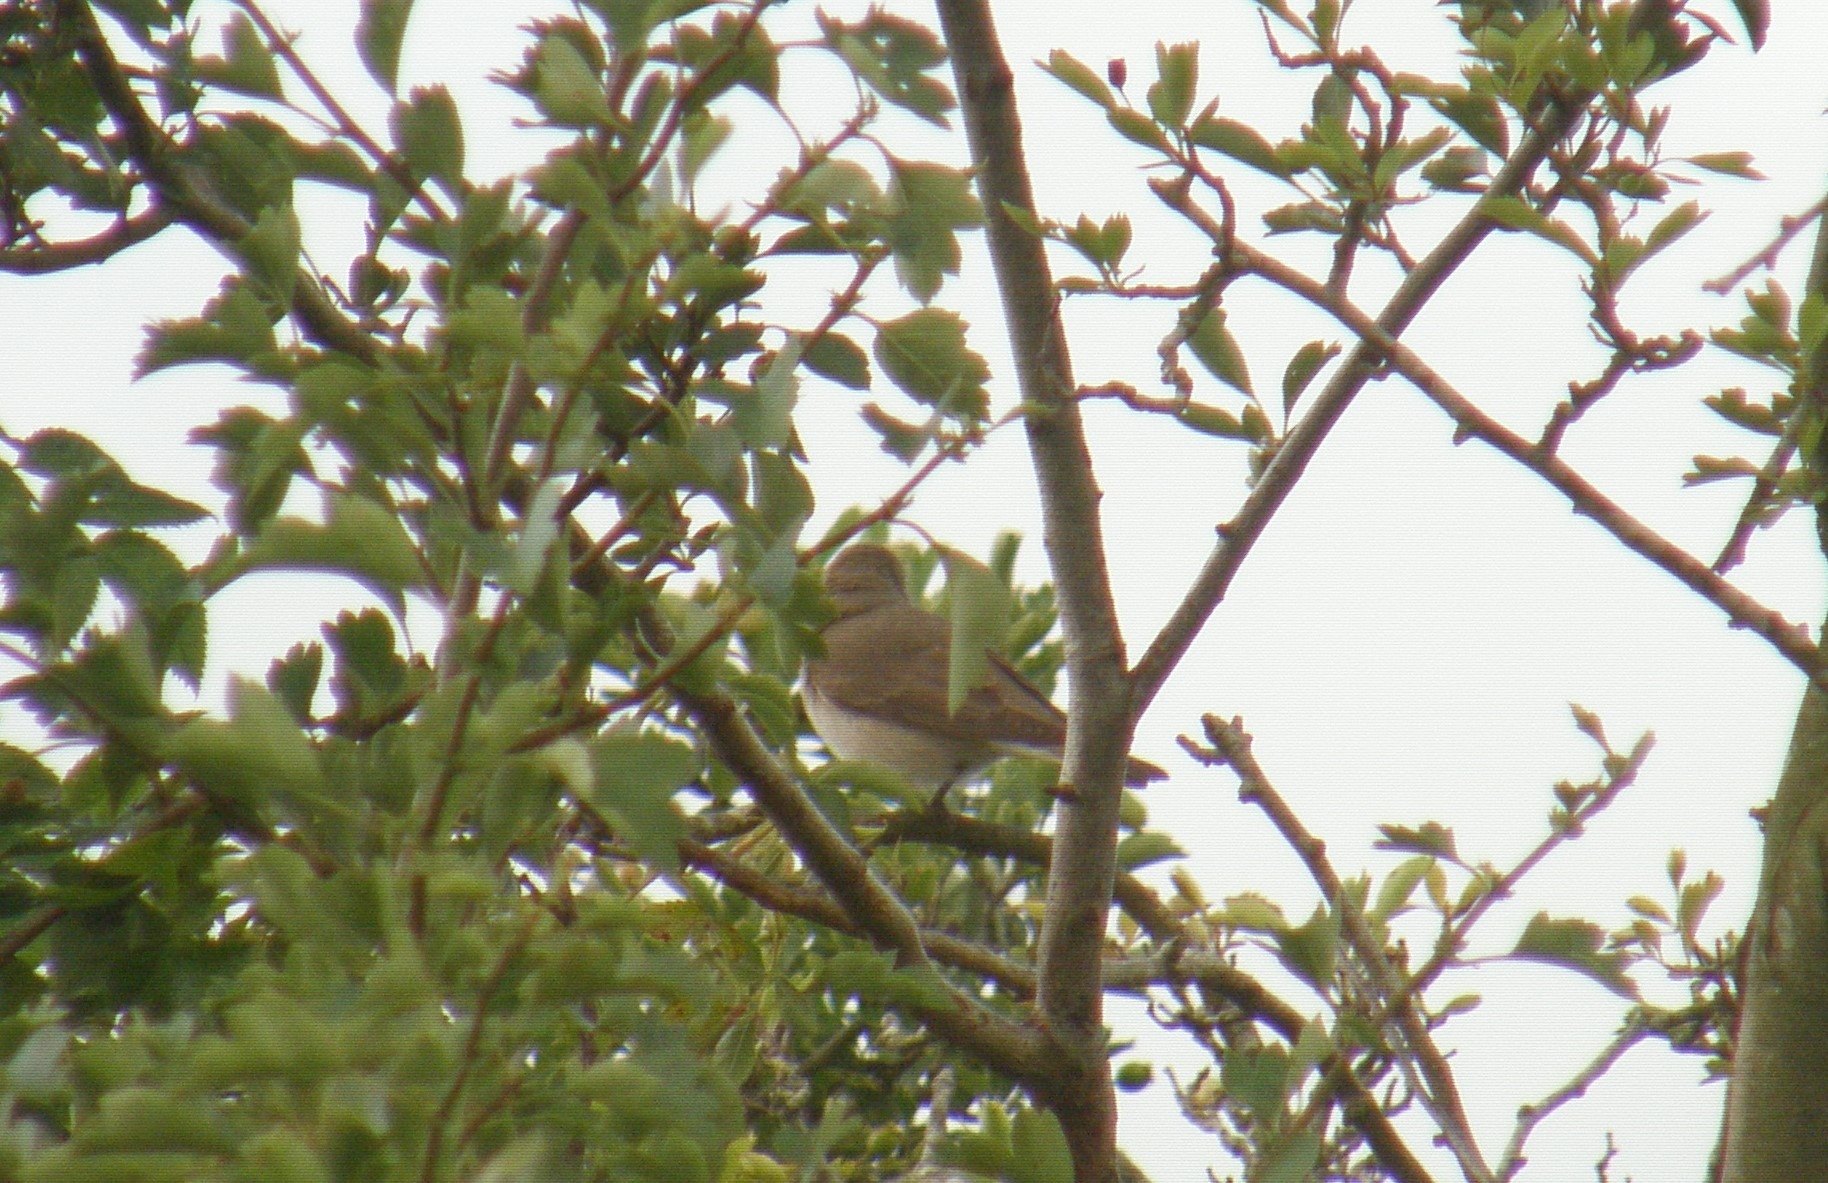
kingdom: Animalia
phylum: Chordata
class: Aves
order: Passeriformes
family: Sylviidae
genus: Sylvia
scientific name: Sylvia borin
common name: Havesanger
